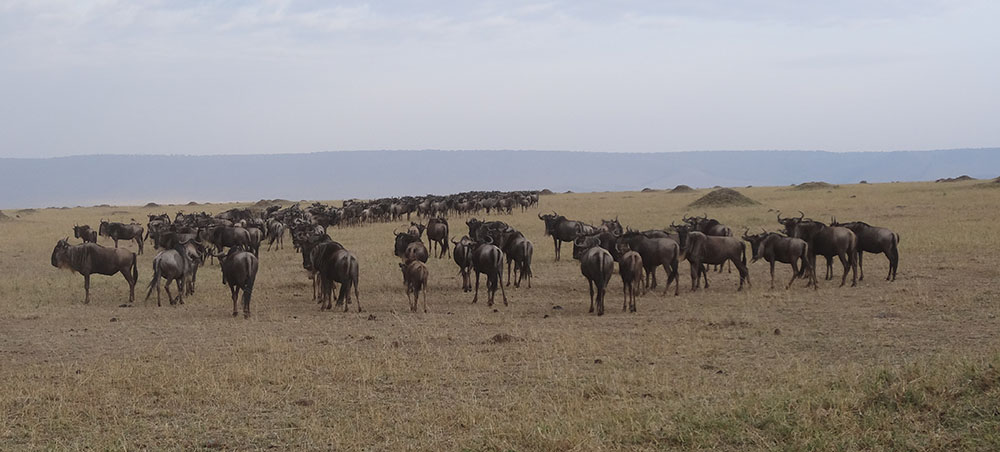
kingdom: Animalia
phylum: Chordata
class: Mammalia
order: Artiodactyla
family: Bovidae
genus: Connochaetes
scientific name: Connochaetes taurinus
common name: Blue wildebeest
